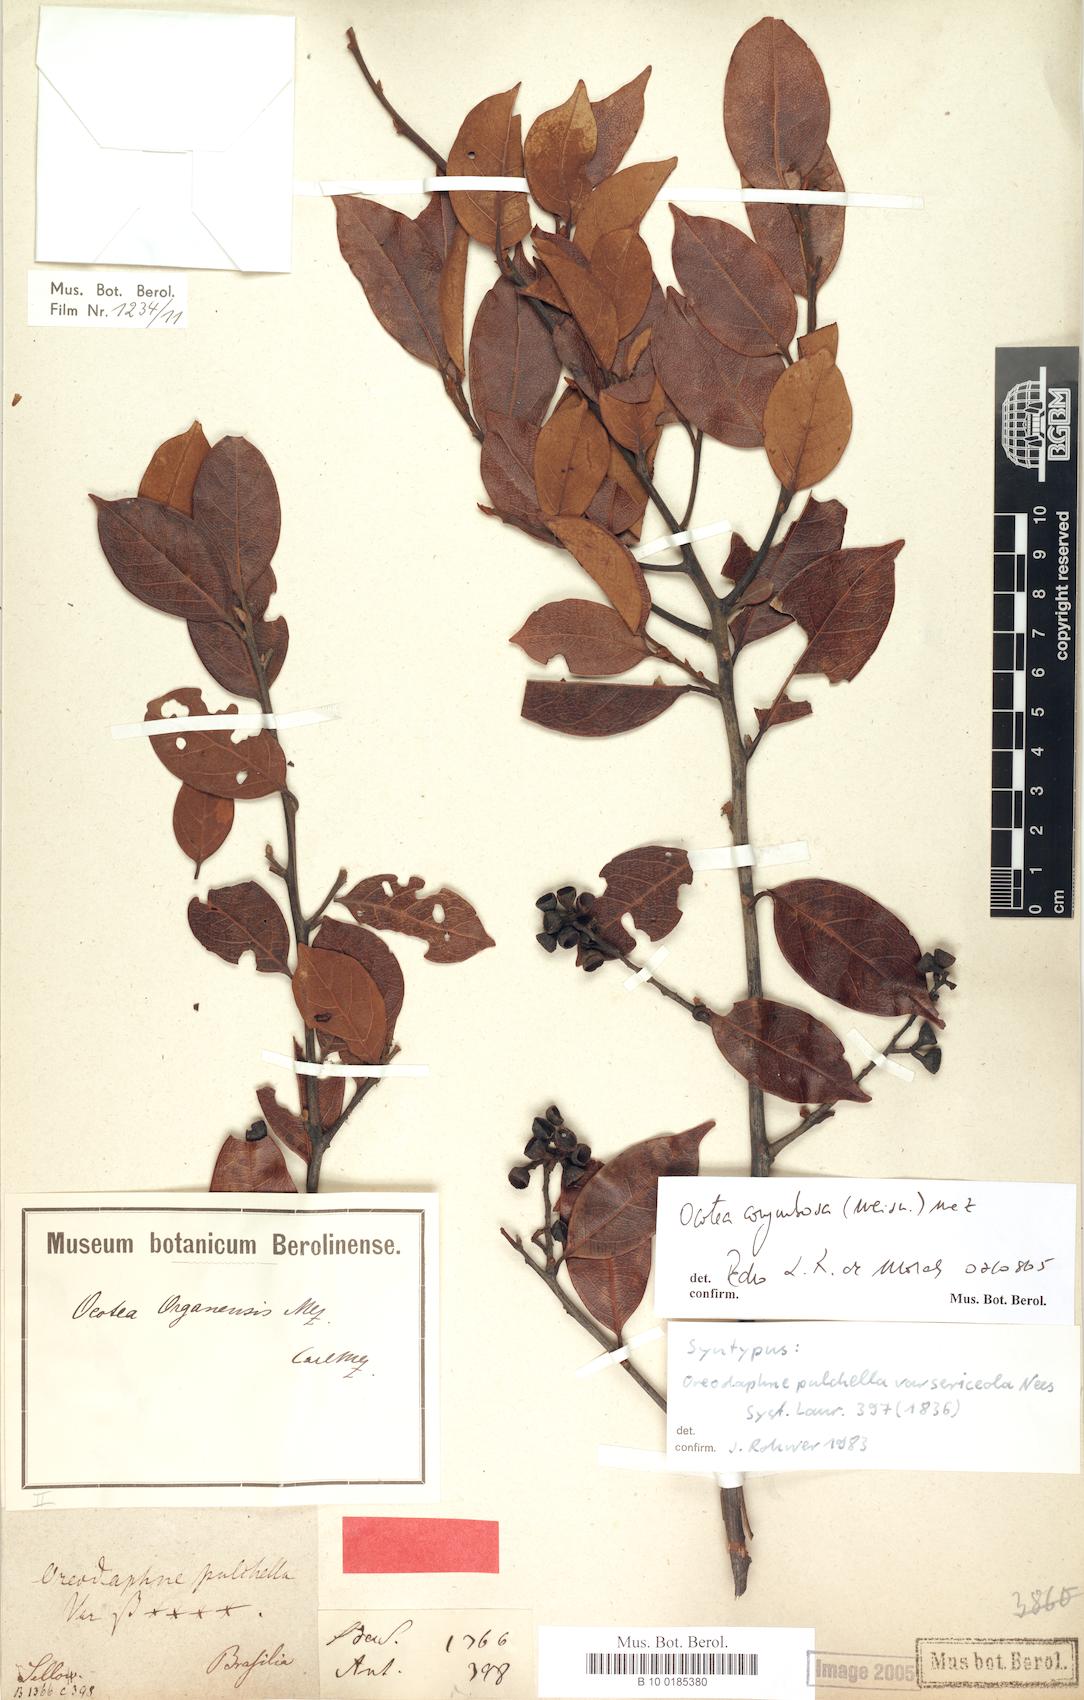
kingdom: Plantae
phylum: Tracheophyta
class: Magnoliopsida
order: Laurales
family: Lauraceae
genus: Mespilodaphne
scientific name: Mespilodaphne corymbosa
